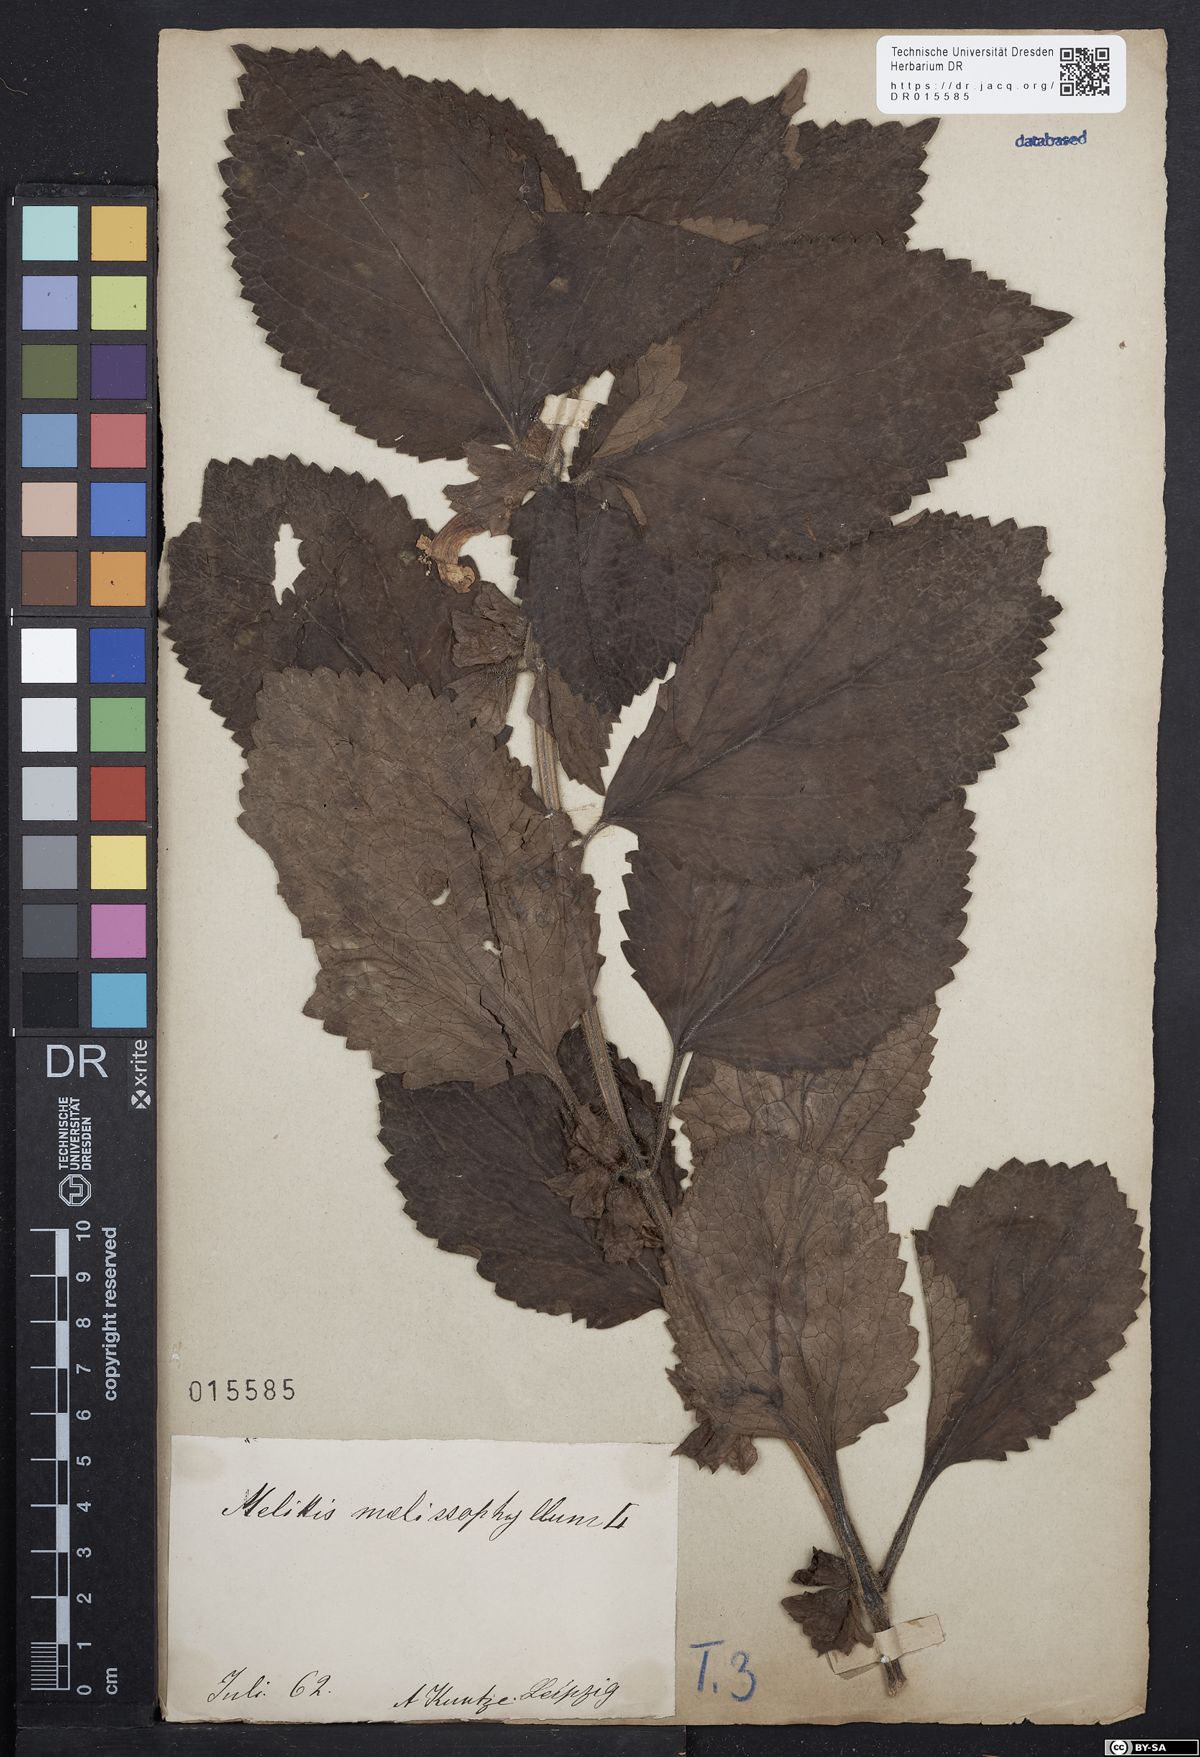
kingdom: Plantae
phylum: Tracheophyta
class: Magnoliopsida
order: Lamiales
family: Lamiaceae
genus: Melittis
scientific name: Melittis melissophyllum
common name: Bastard balm
